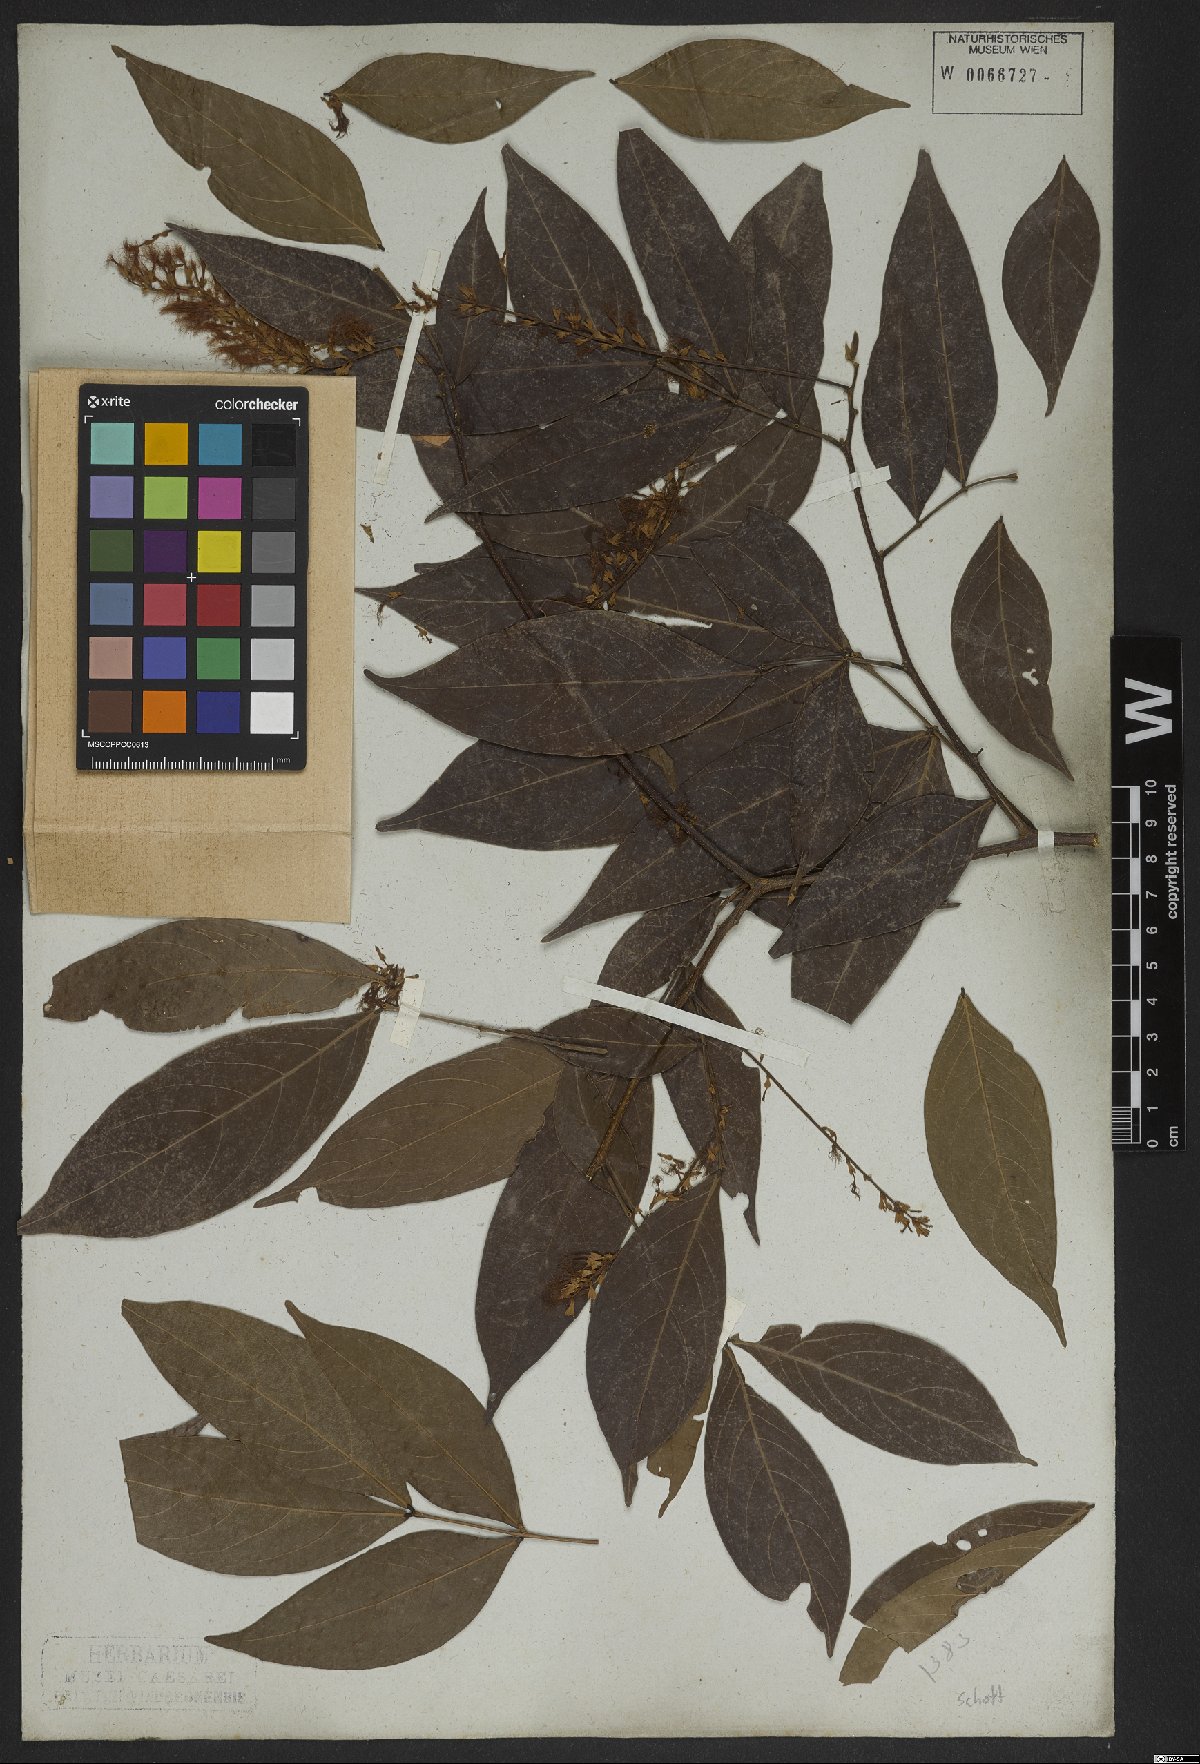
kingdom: Plantae
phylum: Tracheophyta
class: Magnoliopsida
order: Fabales
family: Fabaceae
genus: Inga
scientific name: Inga marginata
